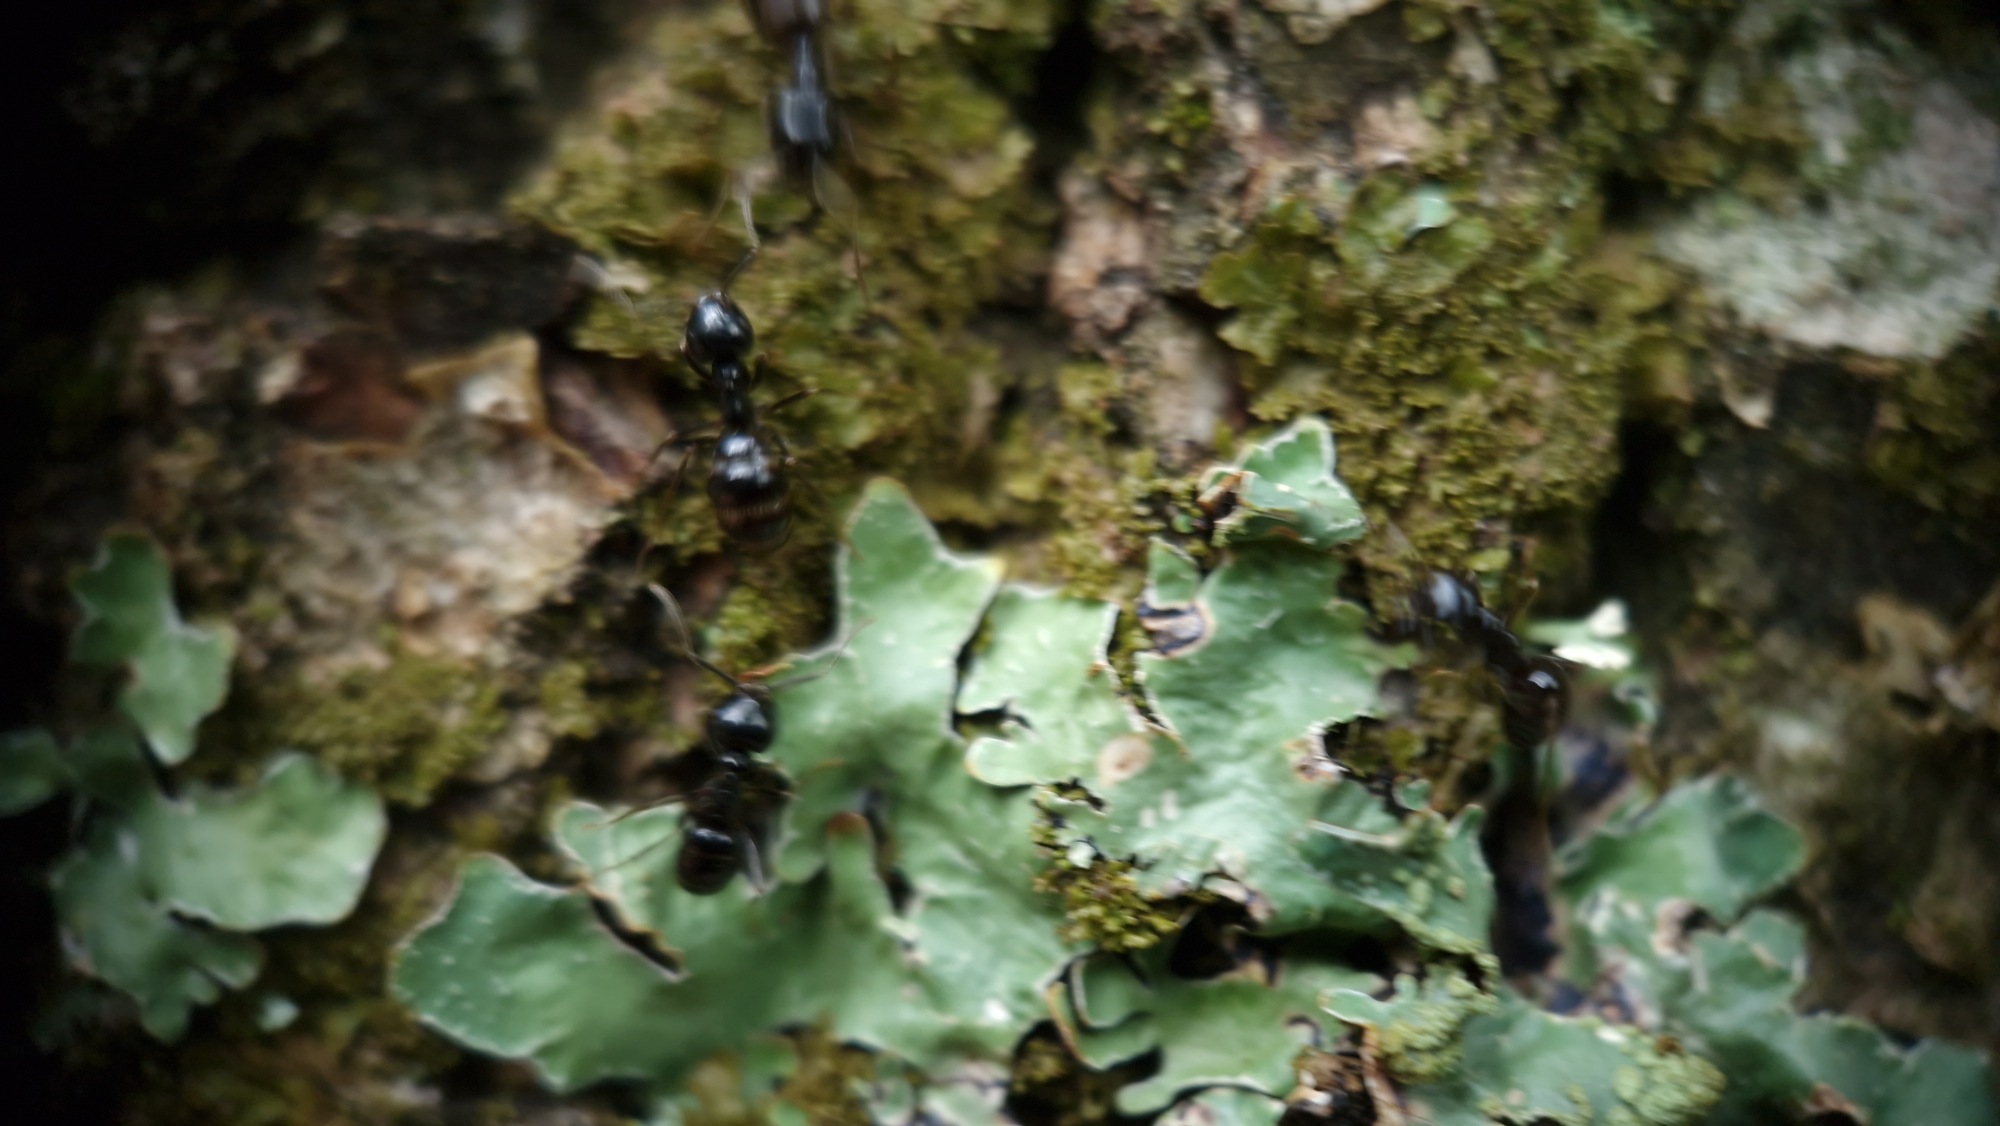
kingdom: Animalia
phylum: Arthropoda
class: Insecta
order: Hymenoptera
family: Formicidae
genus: Lasius
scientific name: Lasius fuliginosus
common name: Orangemyre
